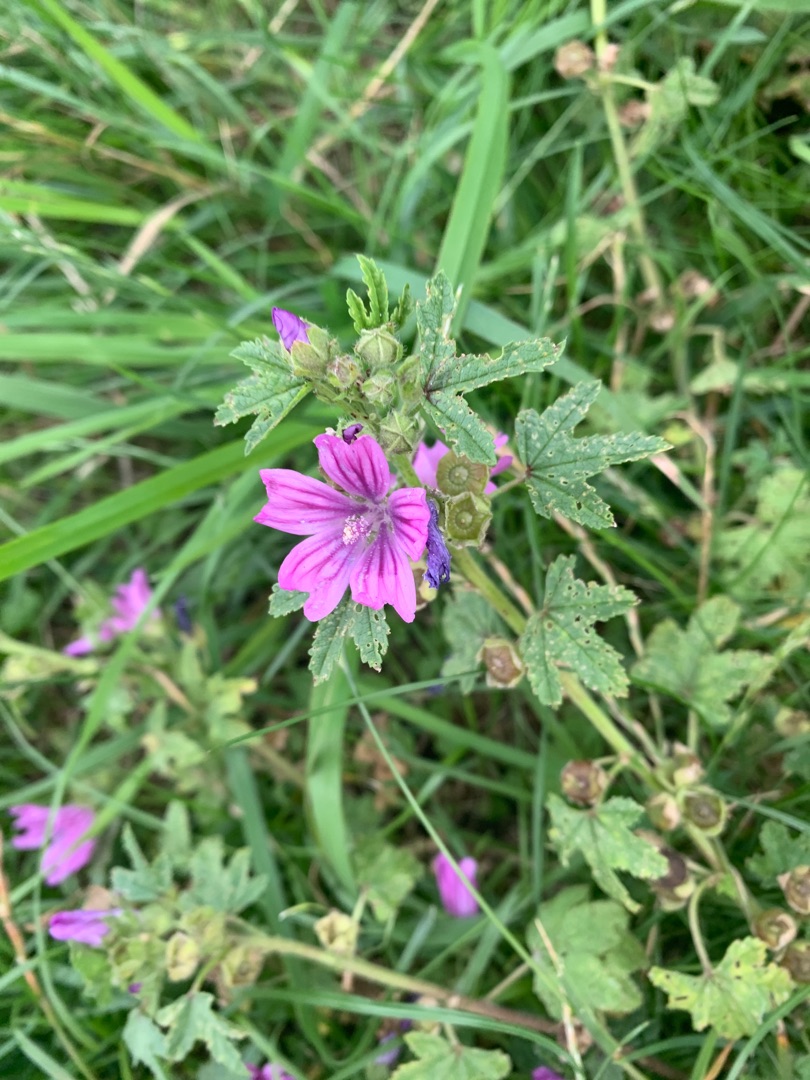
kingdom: Plantae
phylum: Tracheophyta
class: Magnoliopsida
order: Malvales
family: Malvaceae
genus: Malva
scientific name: Malva sylvestris
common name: Almindelig katost
